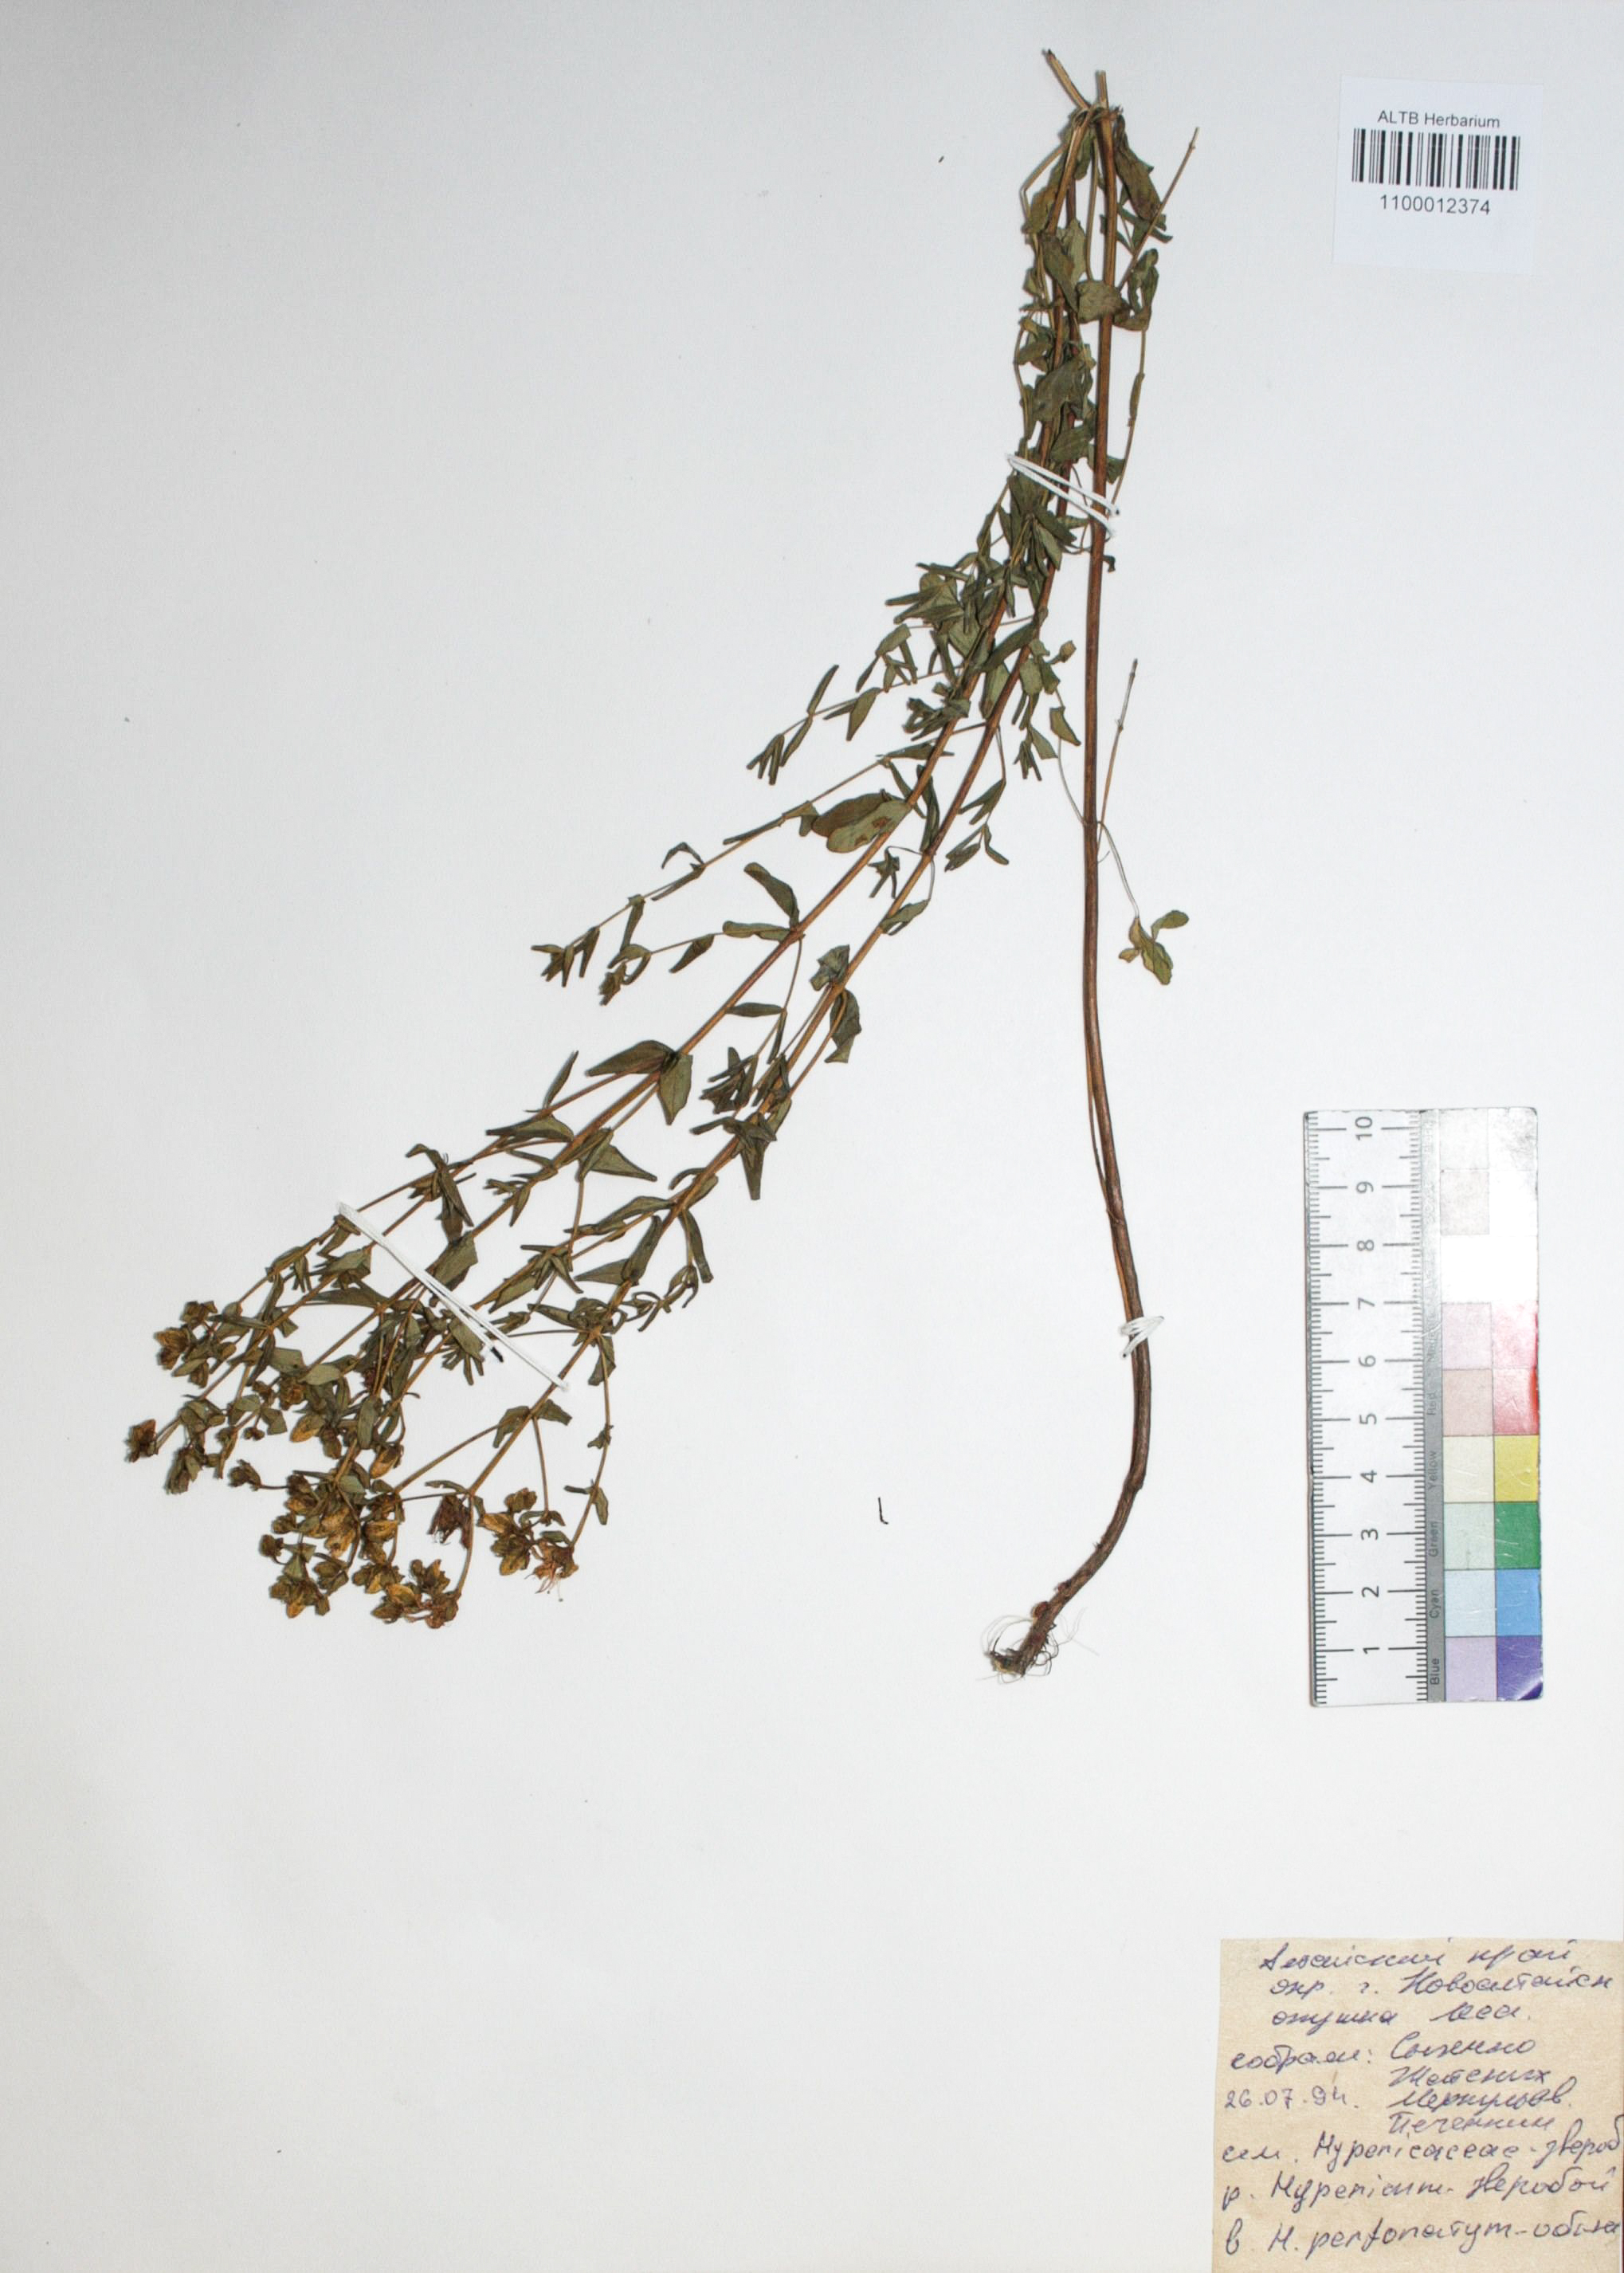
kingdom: Plantae
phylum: Tracheophyta
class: Magnoliopsida
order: Malpighiales
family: Hypericaceae
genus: Hypericum
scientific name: Hypericum perforatum
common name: Common st. johnswort
